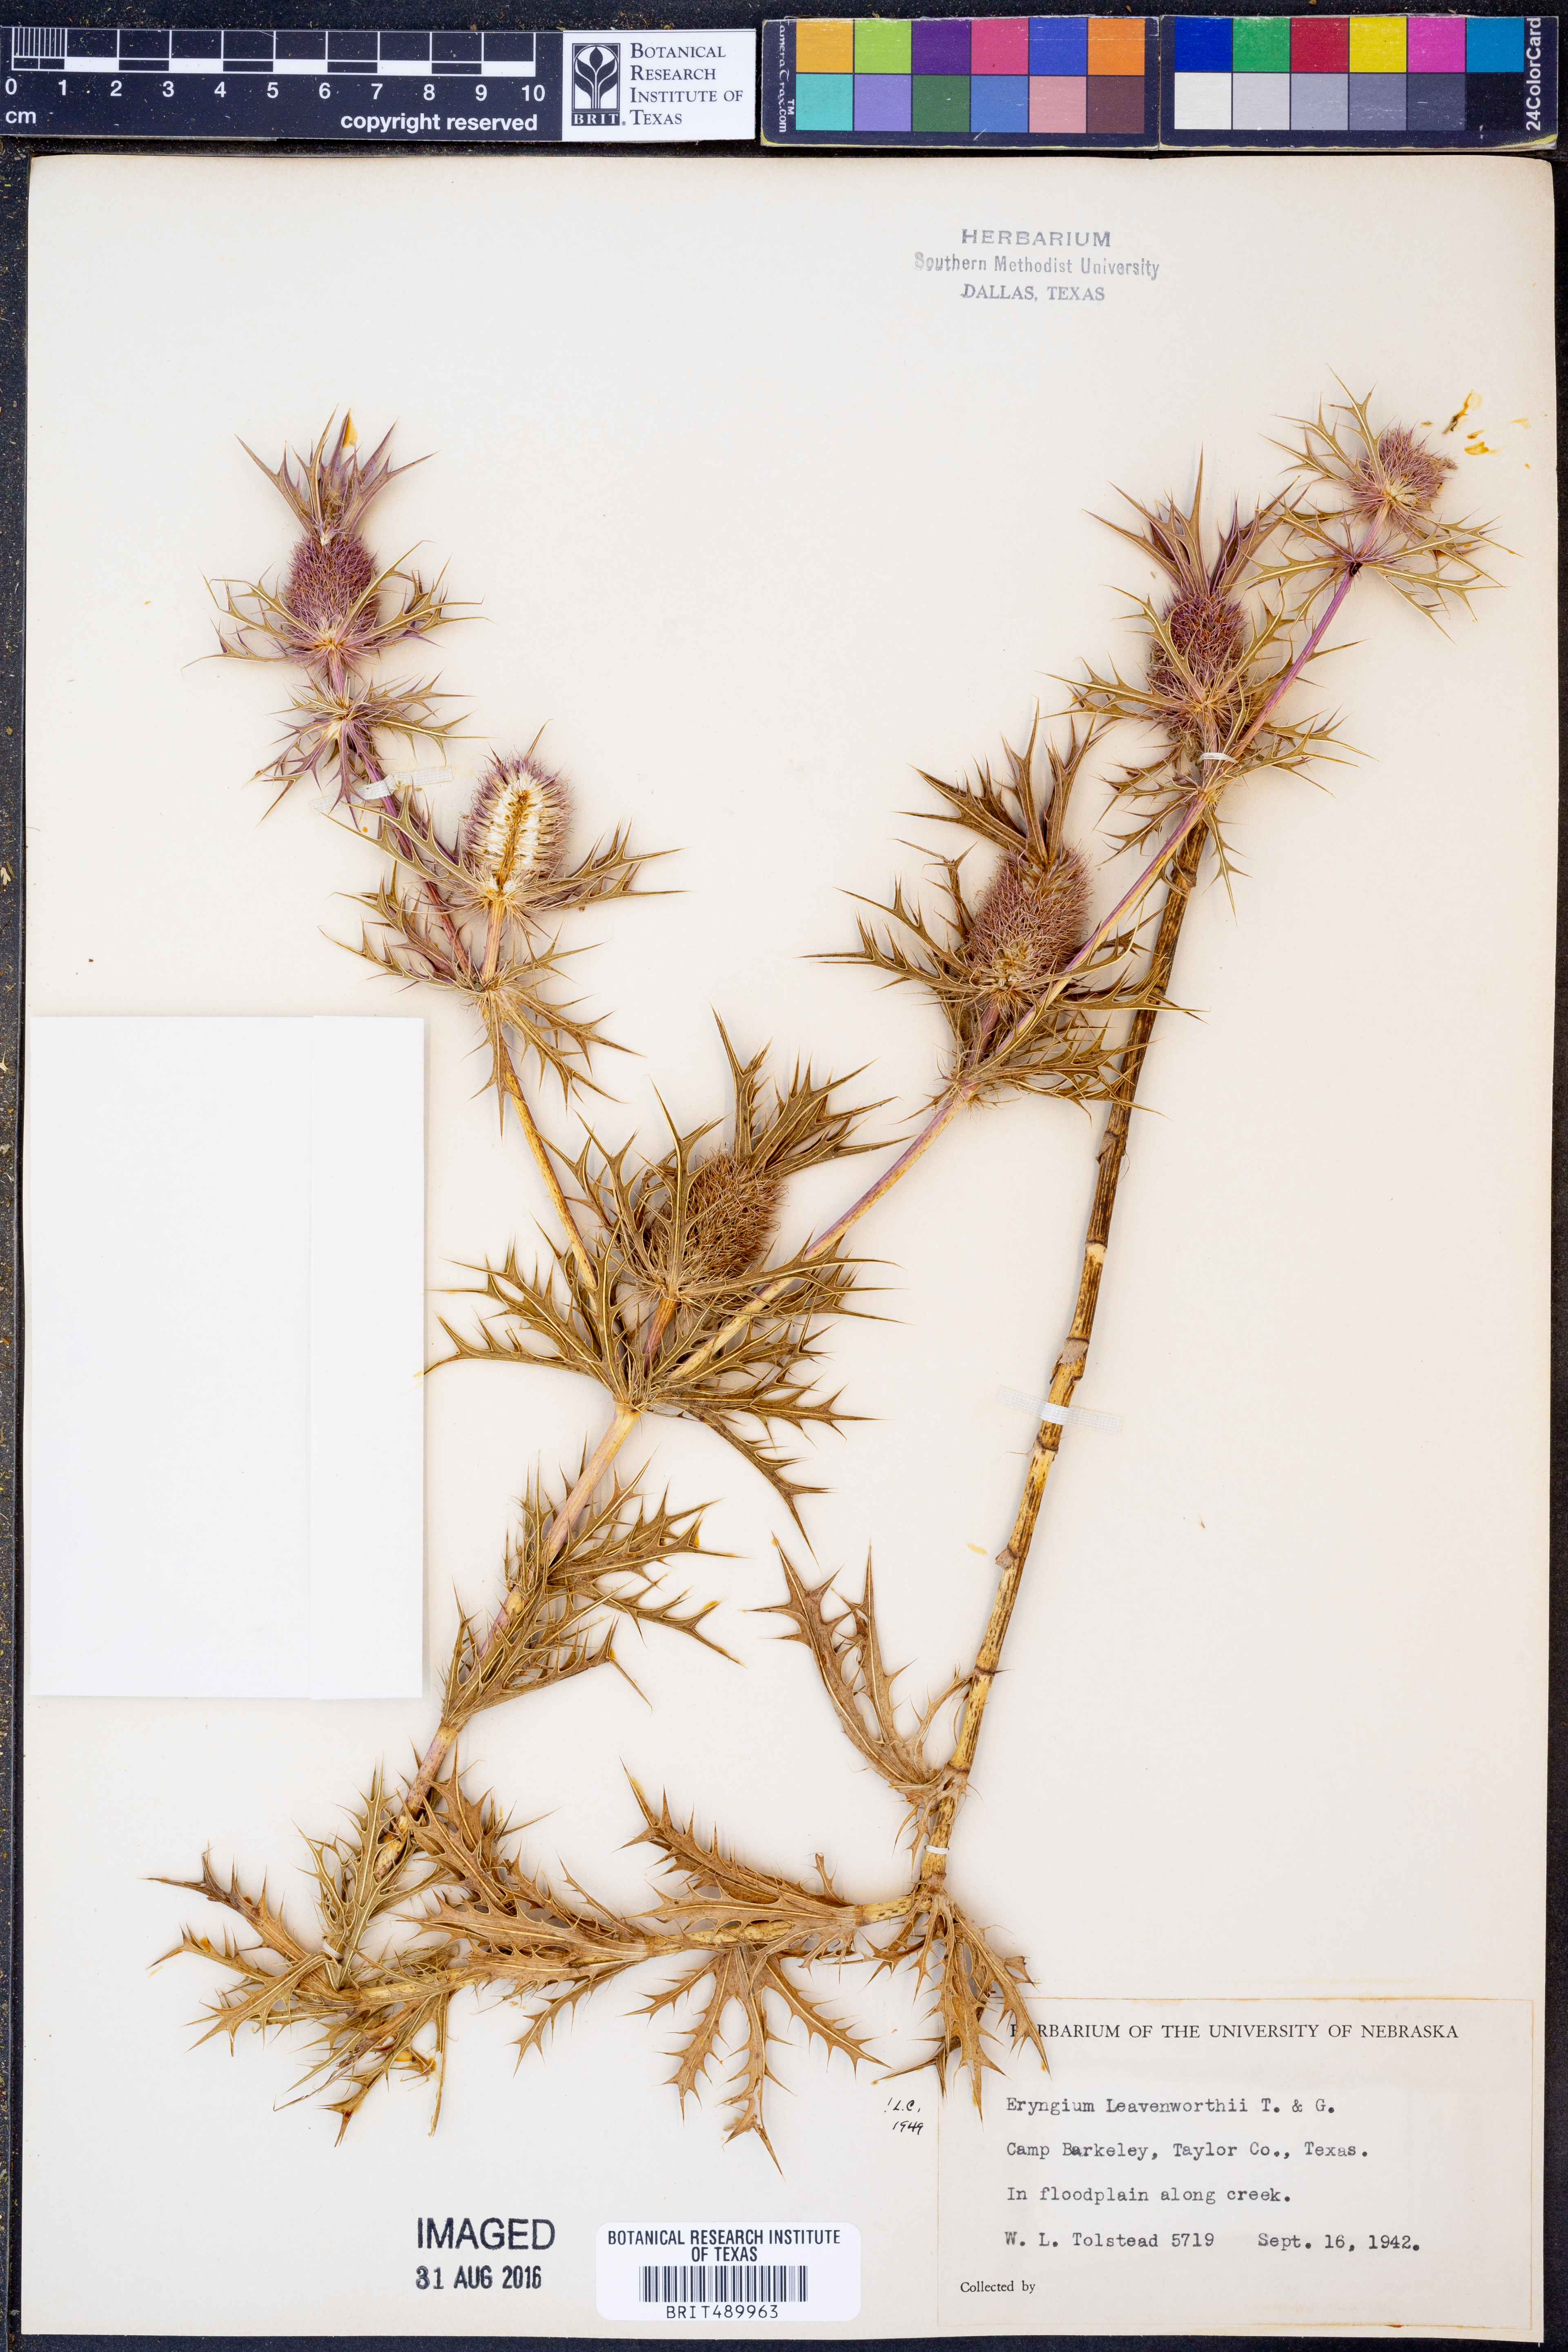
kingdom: Plantae
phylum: Tracheophyta
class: Magnoliopsida
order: Apiales
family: Apiaceae
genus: Eryngium
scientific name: Eryngium leavenworthii
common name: Leavenworth's eryngo
